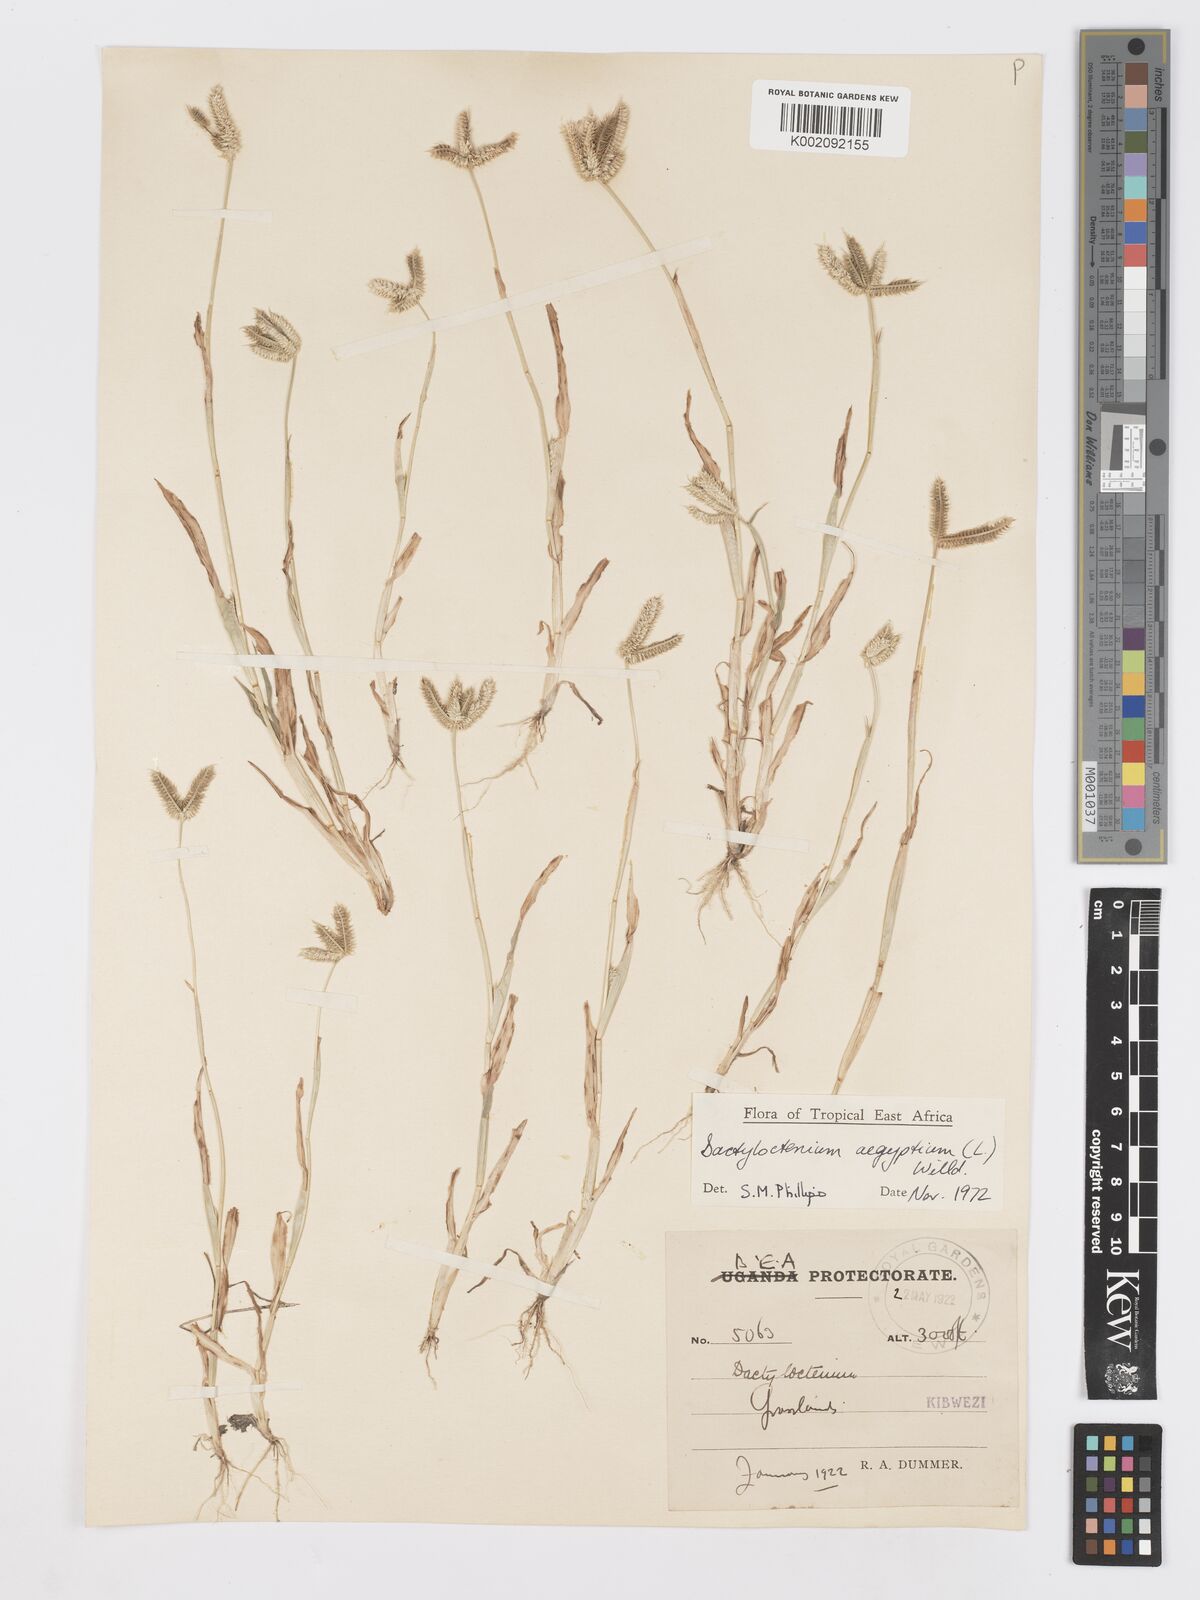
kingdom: Plantae
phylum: Tracheophyta
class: Liliopsida
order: Poales
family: Poaceae
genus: Dactyloctenium
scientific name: Dactyloctenium aegyptium
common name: Egyptian grass
